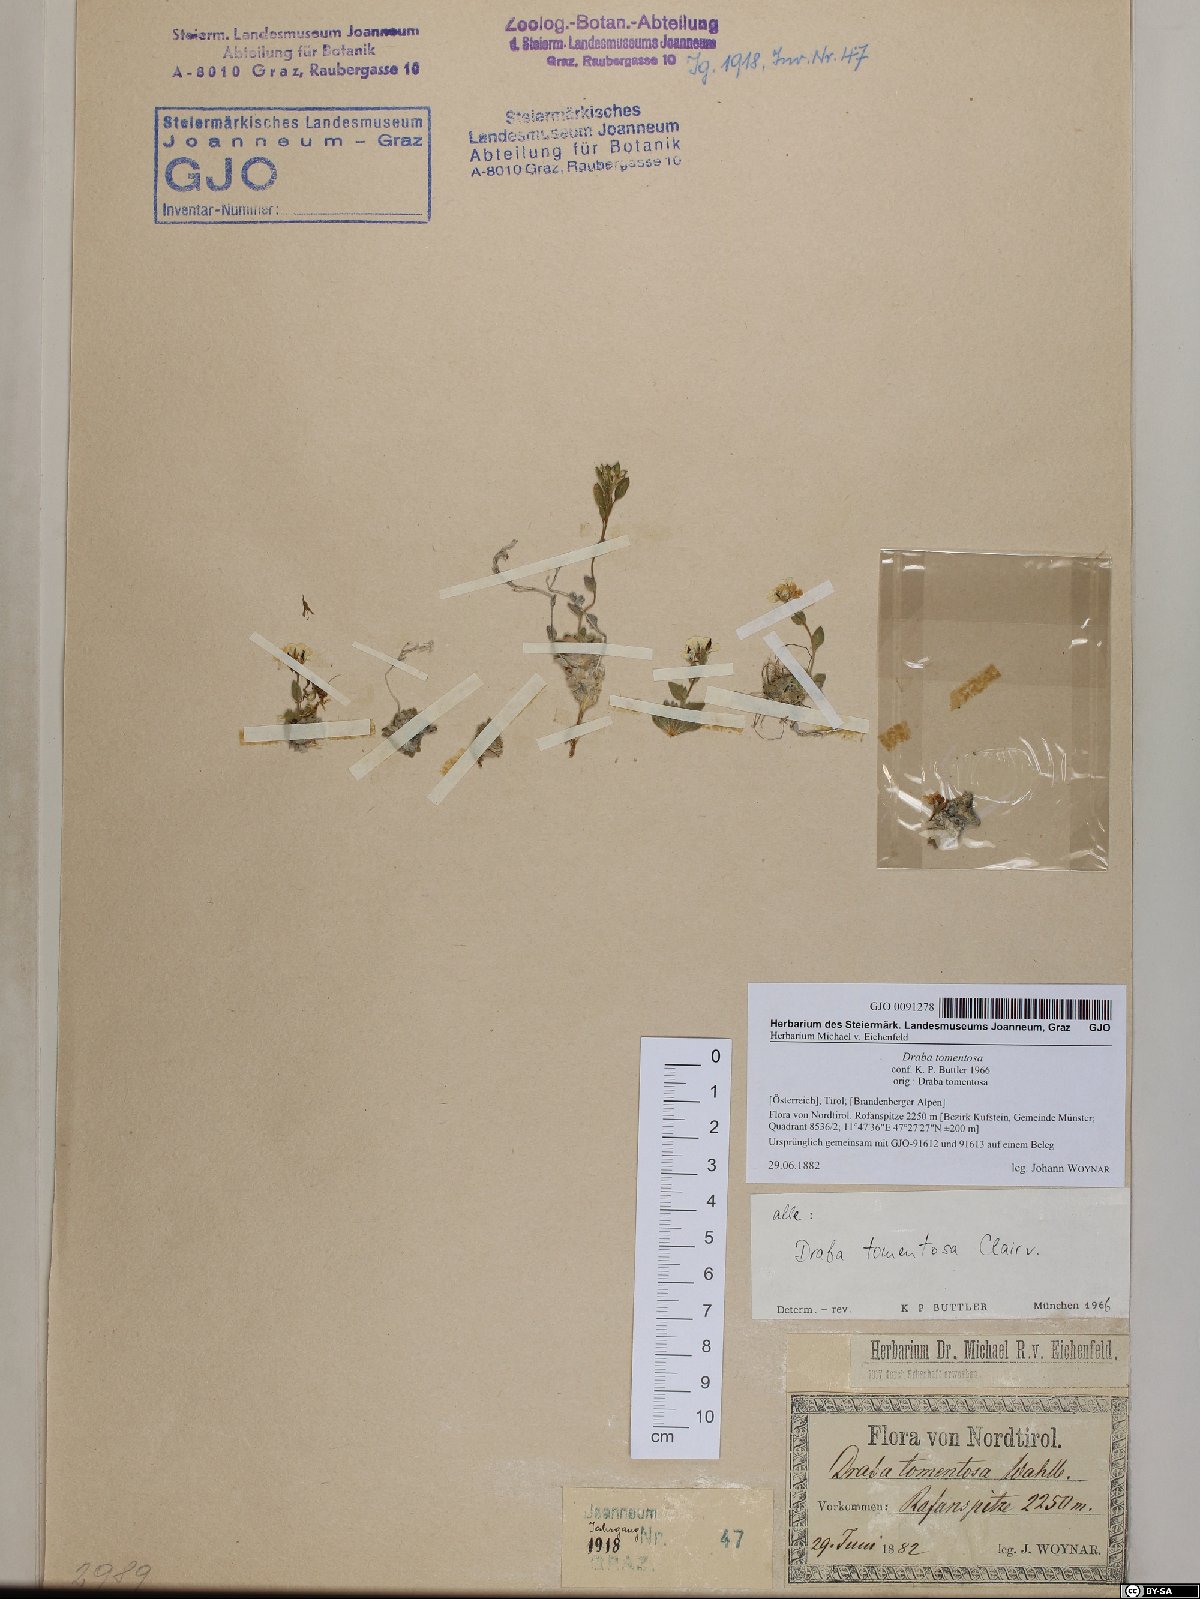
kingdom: Plantae
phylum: Tracheophyta
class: Magnoliopsida
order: Brassicales
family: Brassicaceae
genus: Draba
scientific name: Draba tomentosa
